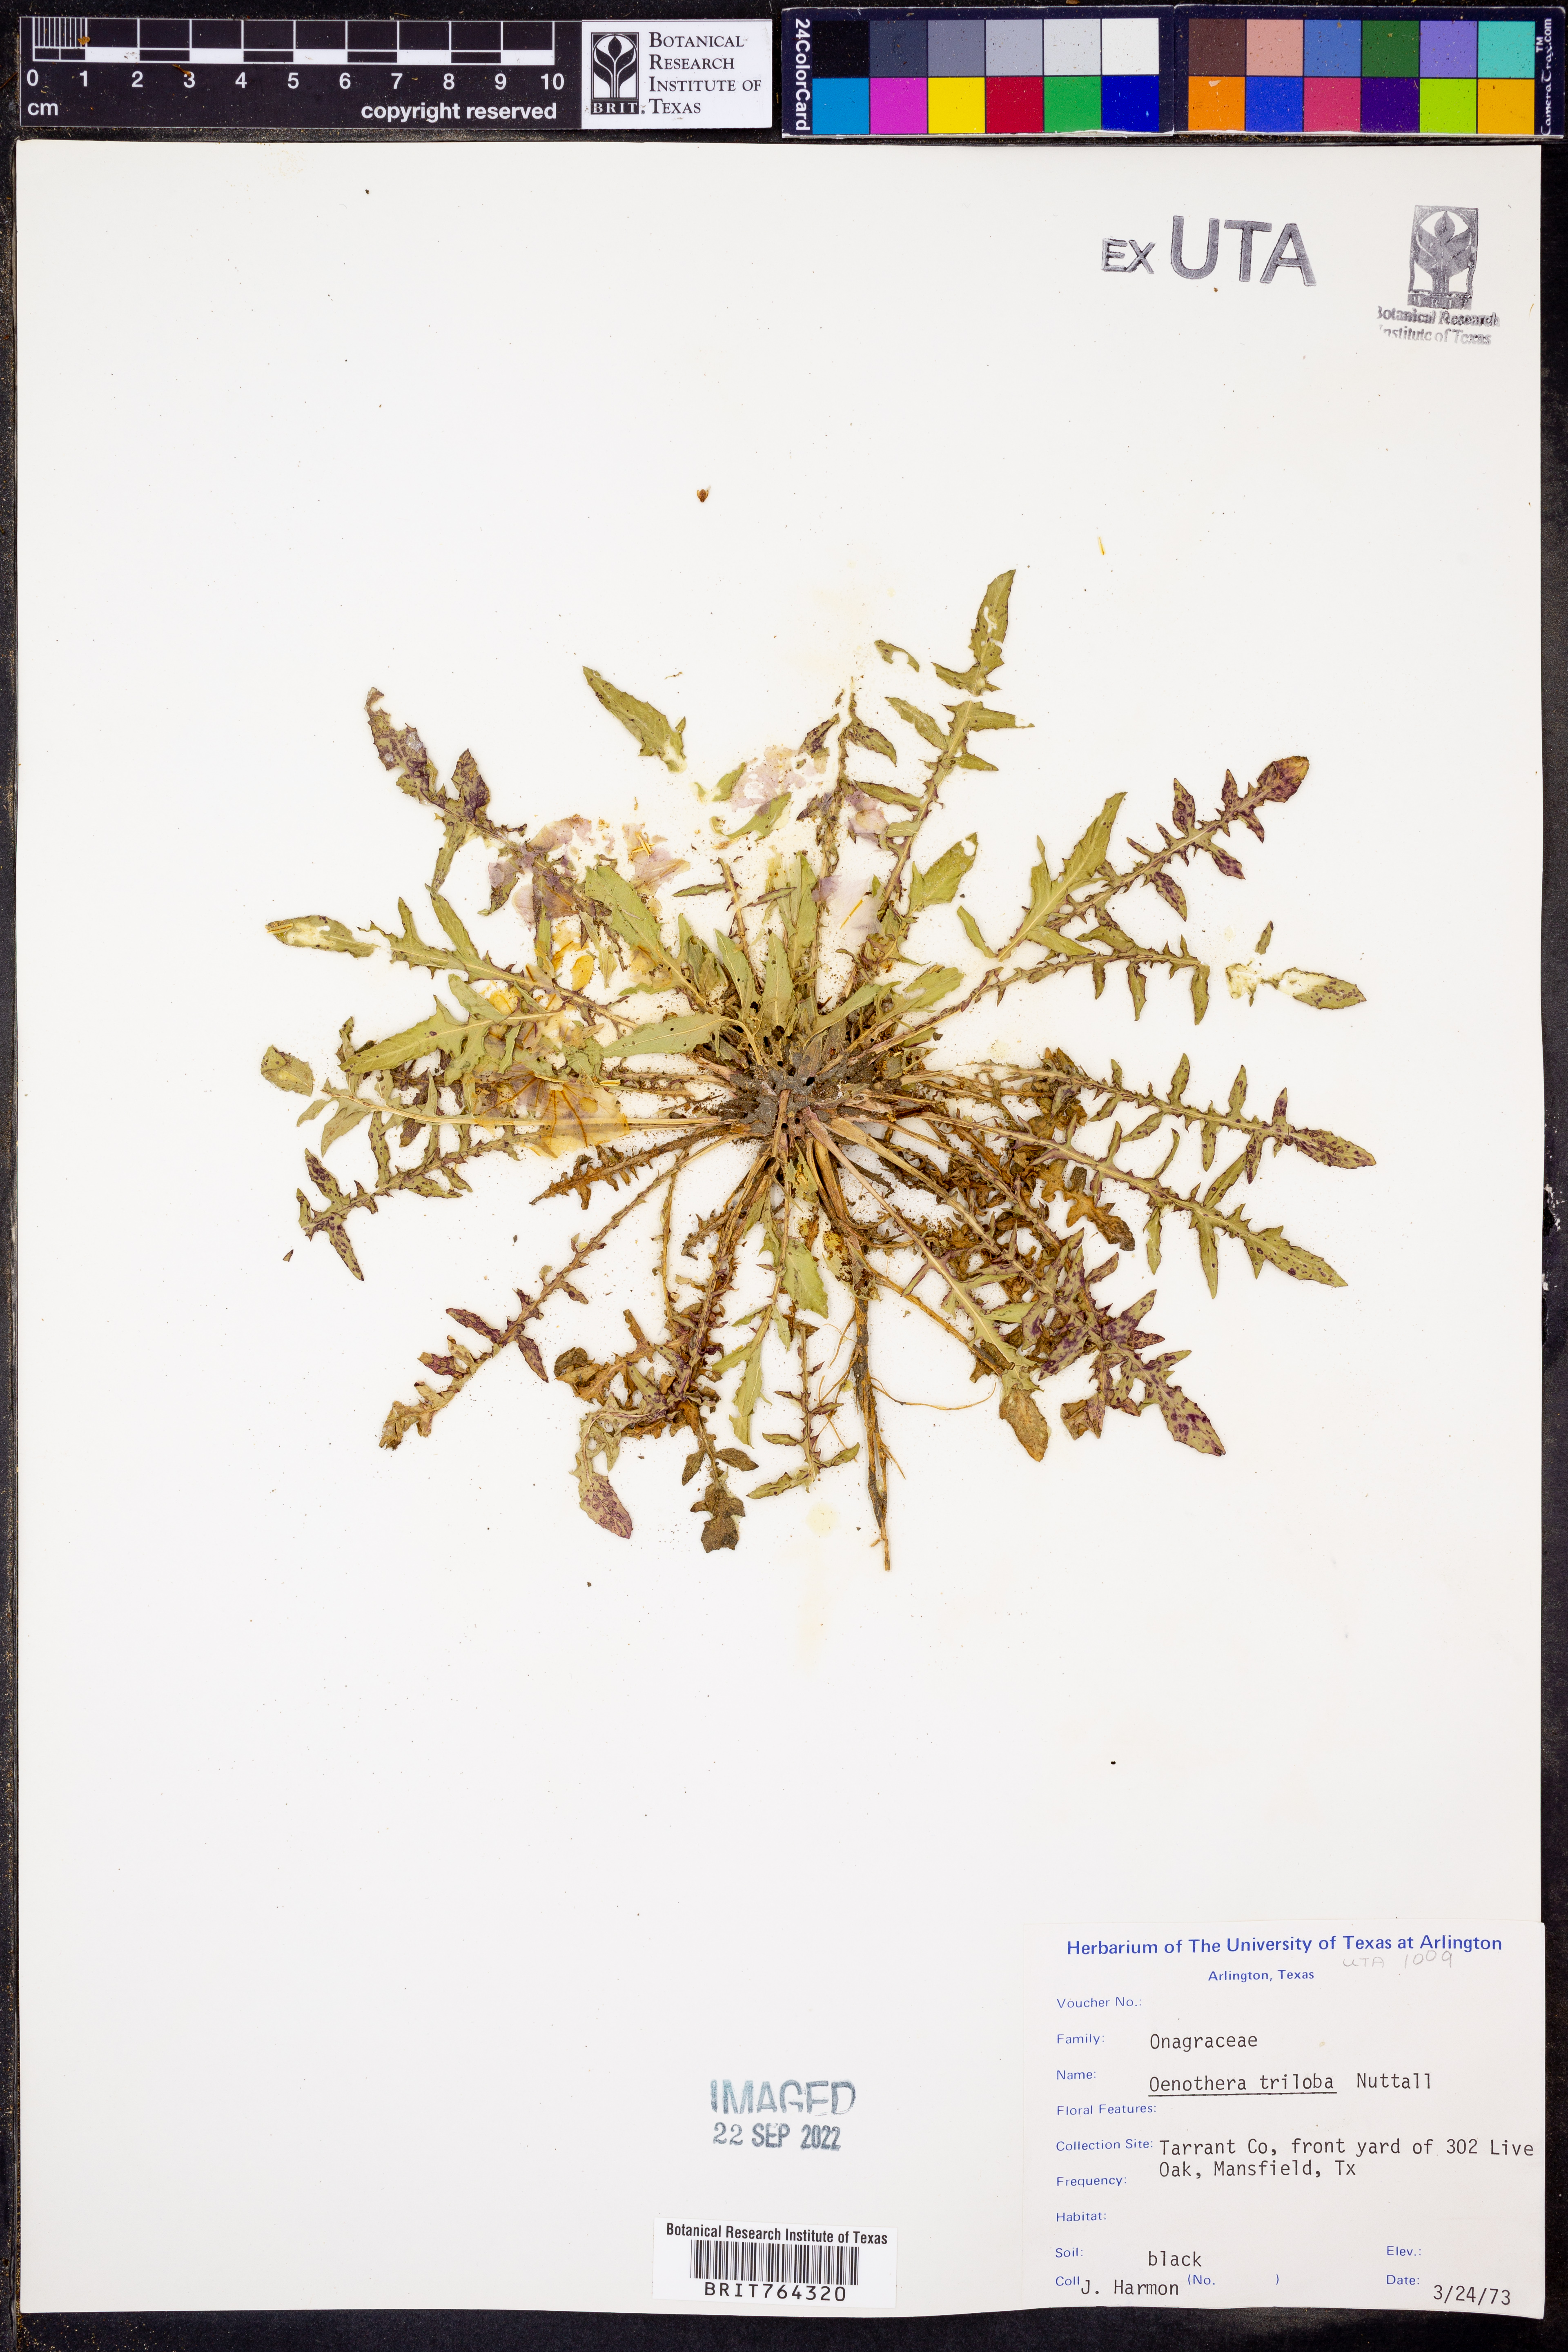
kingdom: Plantae
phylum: Tracheophyta
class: Magnoliopsida
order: Myrtales
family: Onagraceae
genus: Oenothera
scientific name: Oenothera triloba
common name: Sessile evening-primrose
